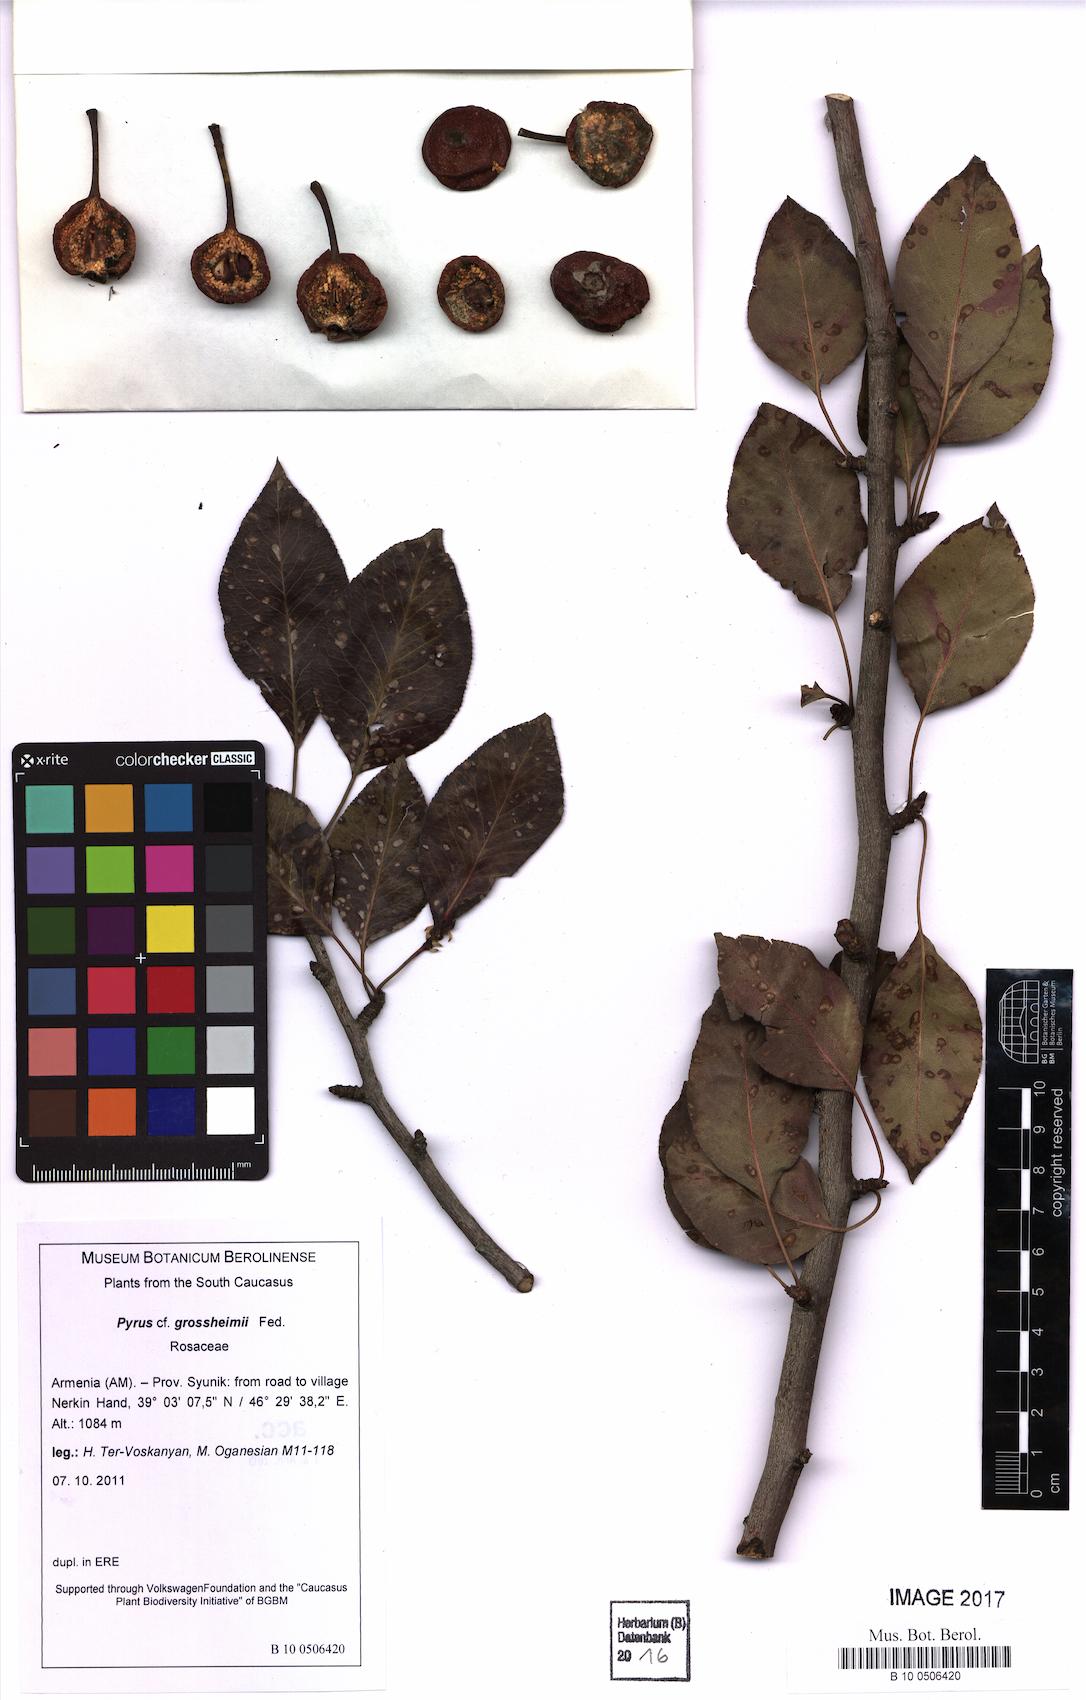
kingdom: Plantae
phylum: Tracheophyta
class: Magnoliopsida
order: Rosales
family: Rosaceae
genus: Pyrus
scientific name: Pyrus grossheimii
